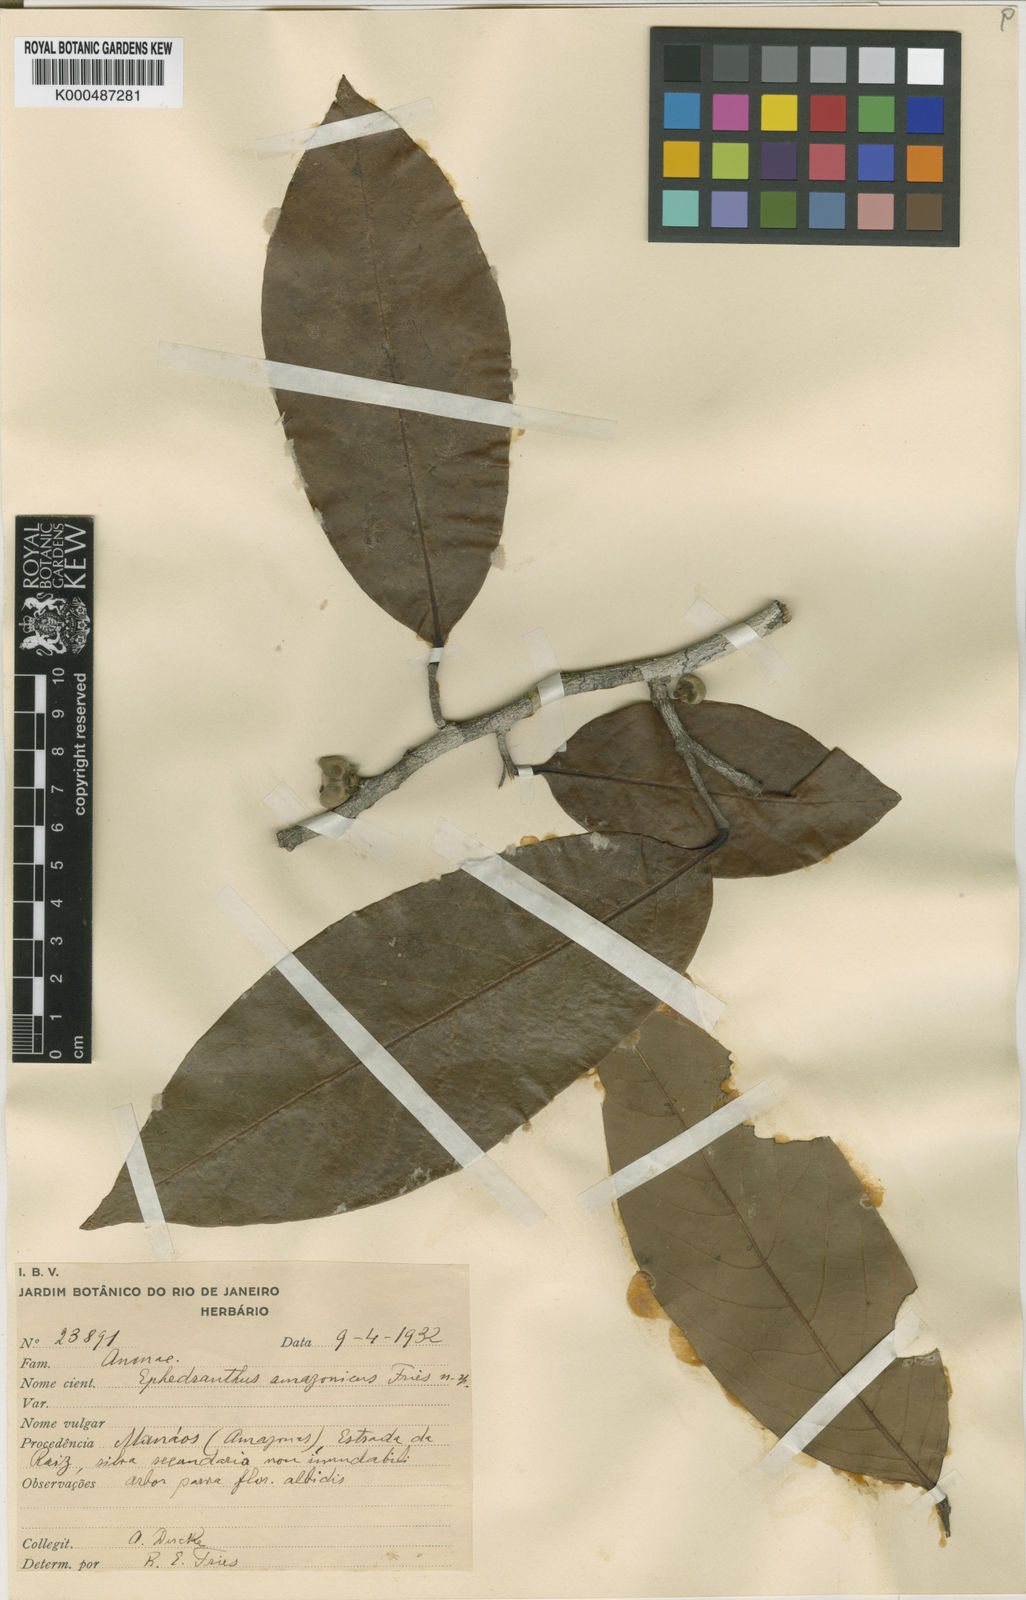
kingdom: Plantae
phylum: Tracheophyta
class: Magnoliopsida
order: Magnoliales
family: Annonaceae
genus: Ephedranthus
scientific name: Ephedranthus amazonicus
